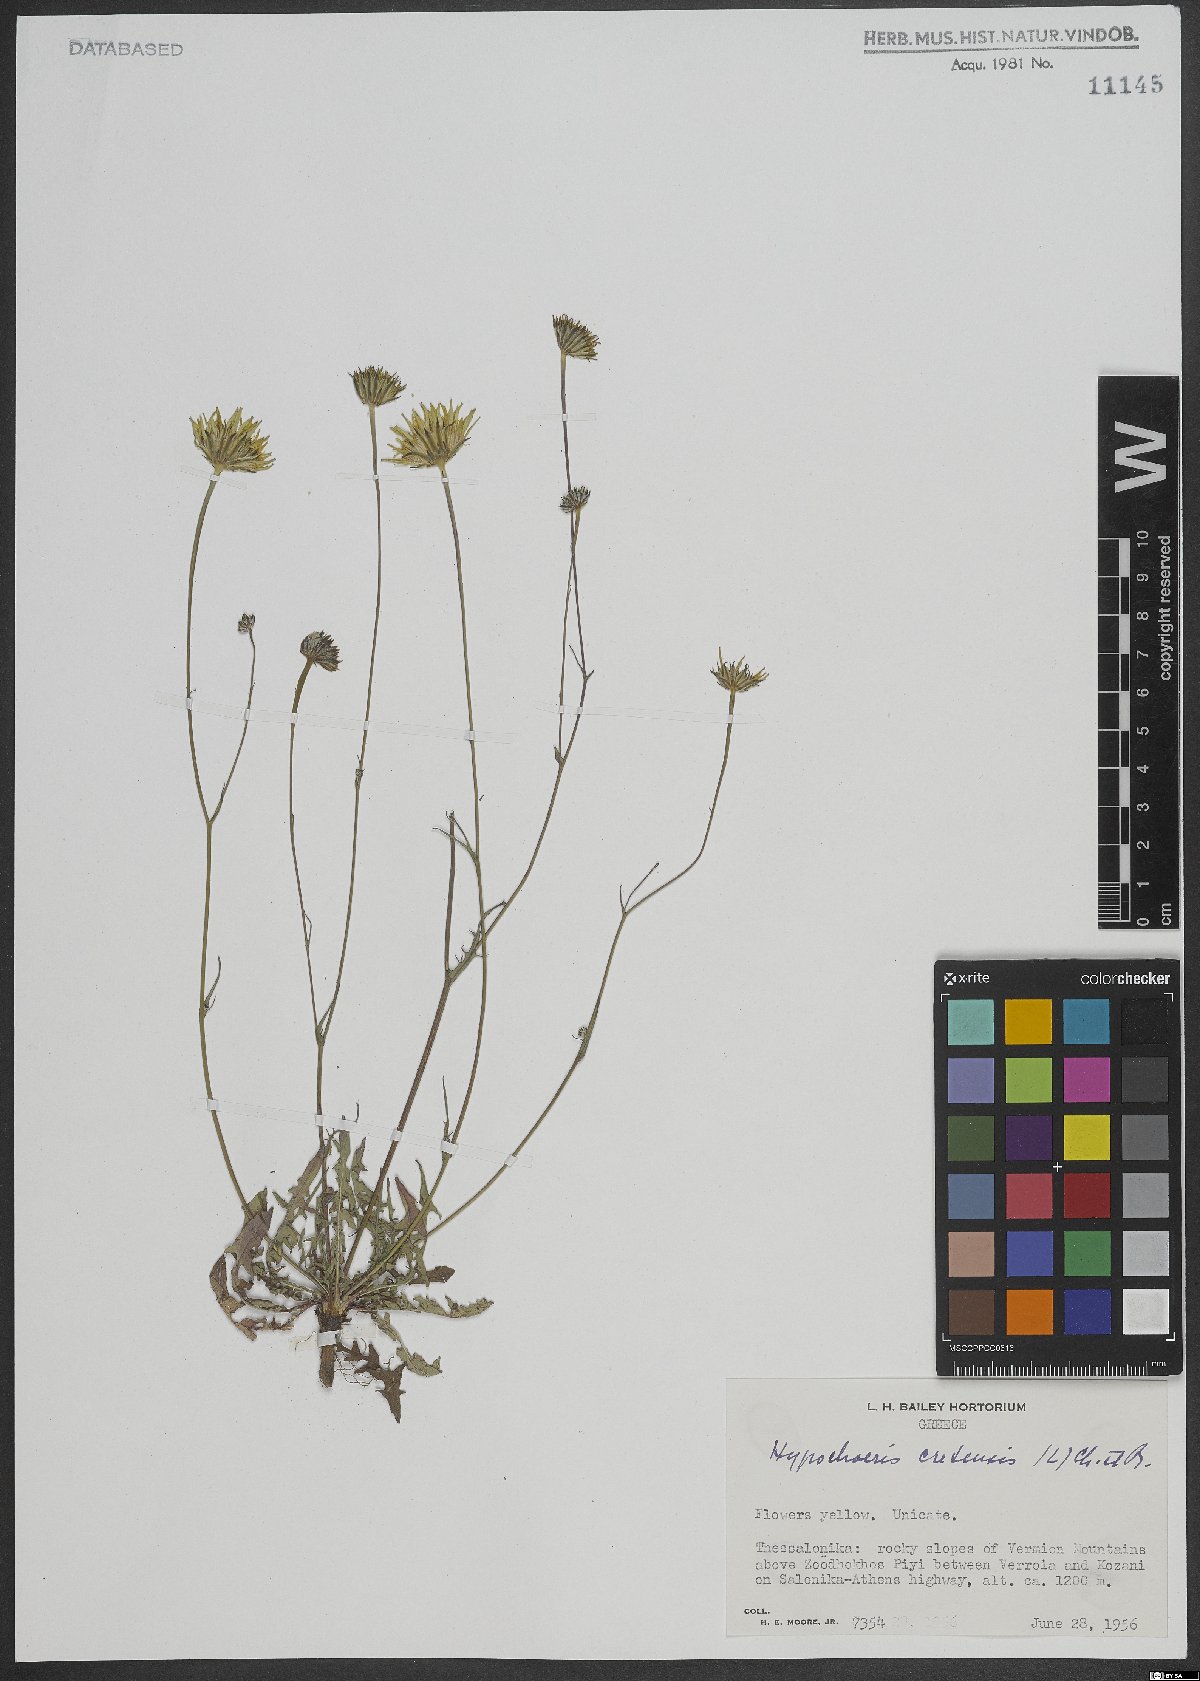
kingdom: Plantae
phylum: Tracheophyta
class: Magnoliopsida
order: Asterales
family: Asteraceae
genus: Hypochaeris
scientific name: Hypochaeris cretensis
